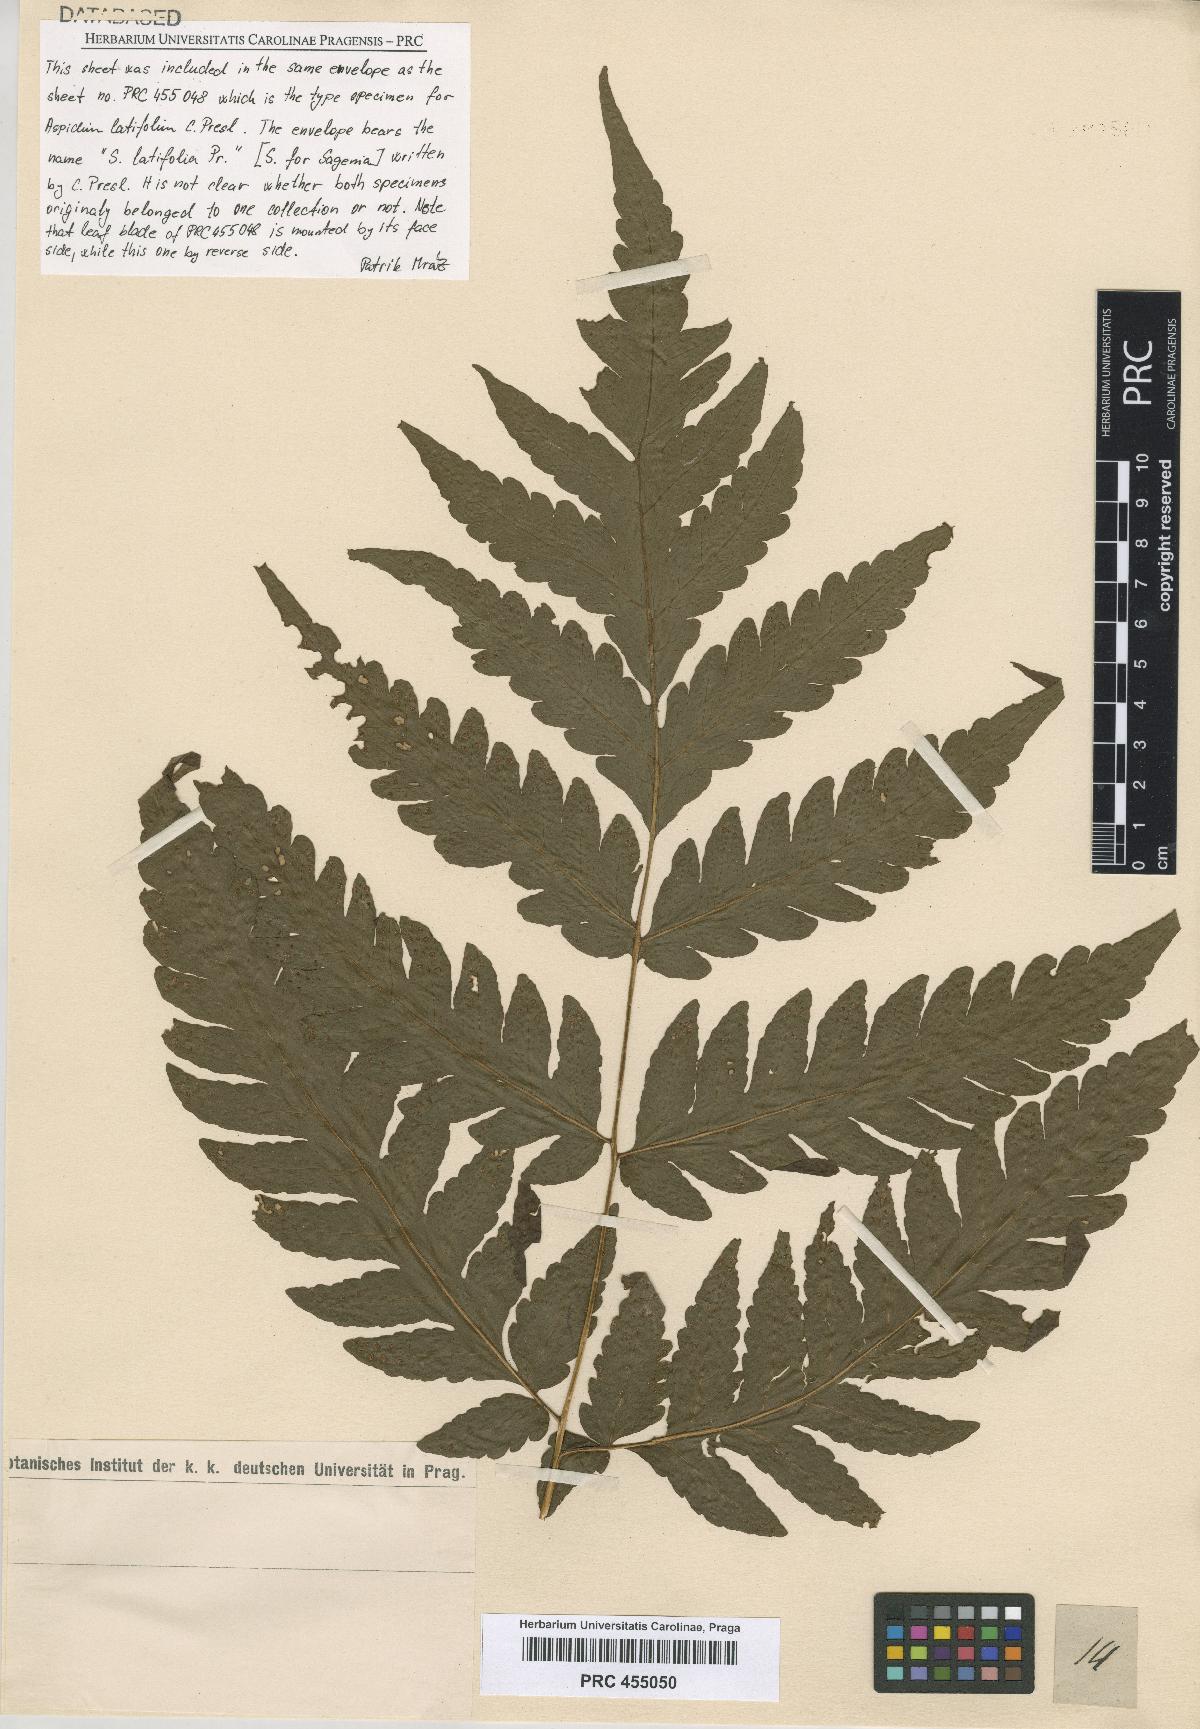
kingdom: Plantae
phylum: Tracheophyta
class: Polypodiopsida
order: Polypodiales
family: Tectariaceae
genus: Tectaria
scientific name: Tectaria mexicana
